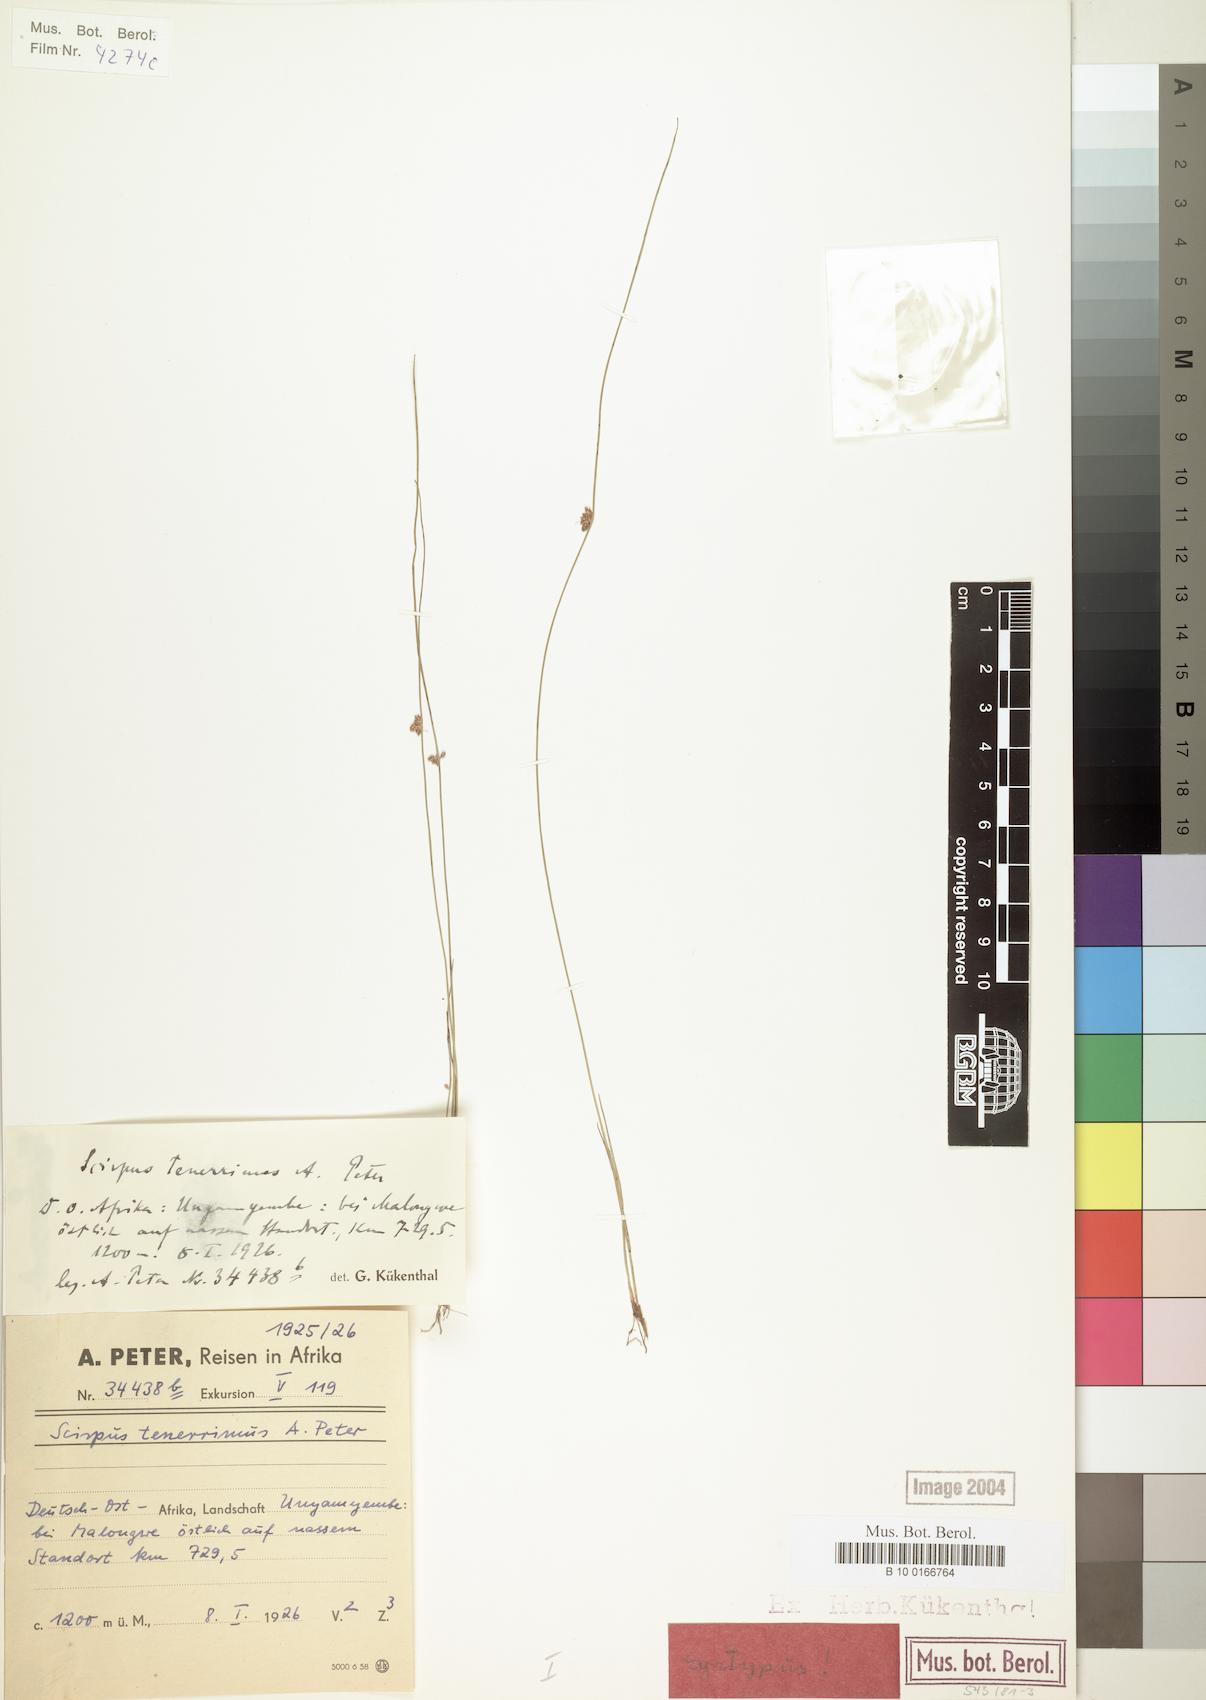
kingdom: Plantae
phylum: Tracheophyta
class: Liliopsida
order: Poales
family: Cyperaceae
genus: Schoenoplectiella
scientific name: Schoenoplectiella microglumis
